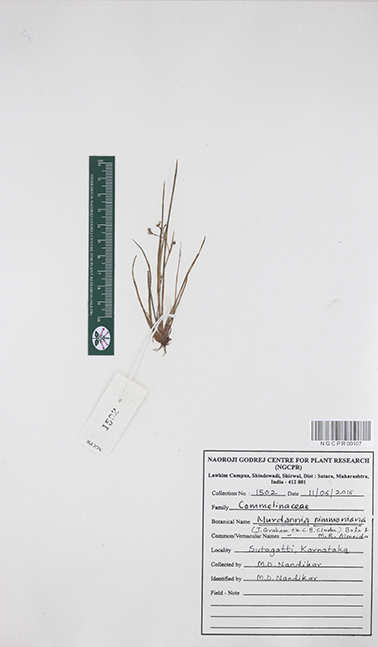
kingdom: Plantae
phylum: Tracheophyta
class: Liliopsida
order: Commelinales
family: Commelinaceae
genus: Murdannia
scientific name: Murdannia semiteres
